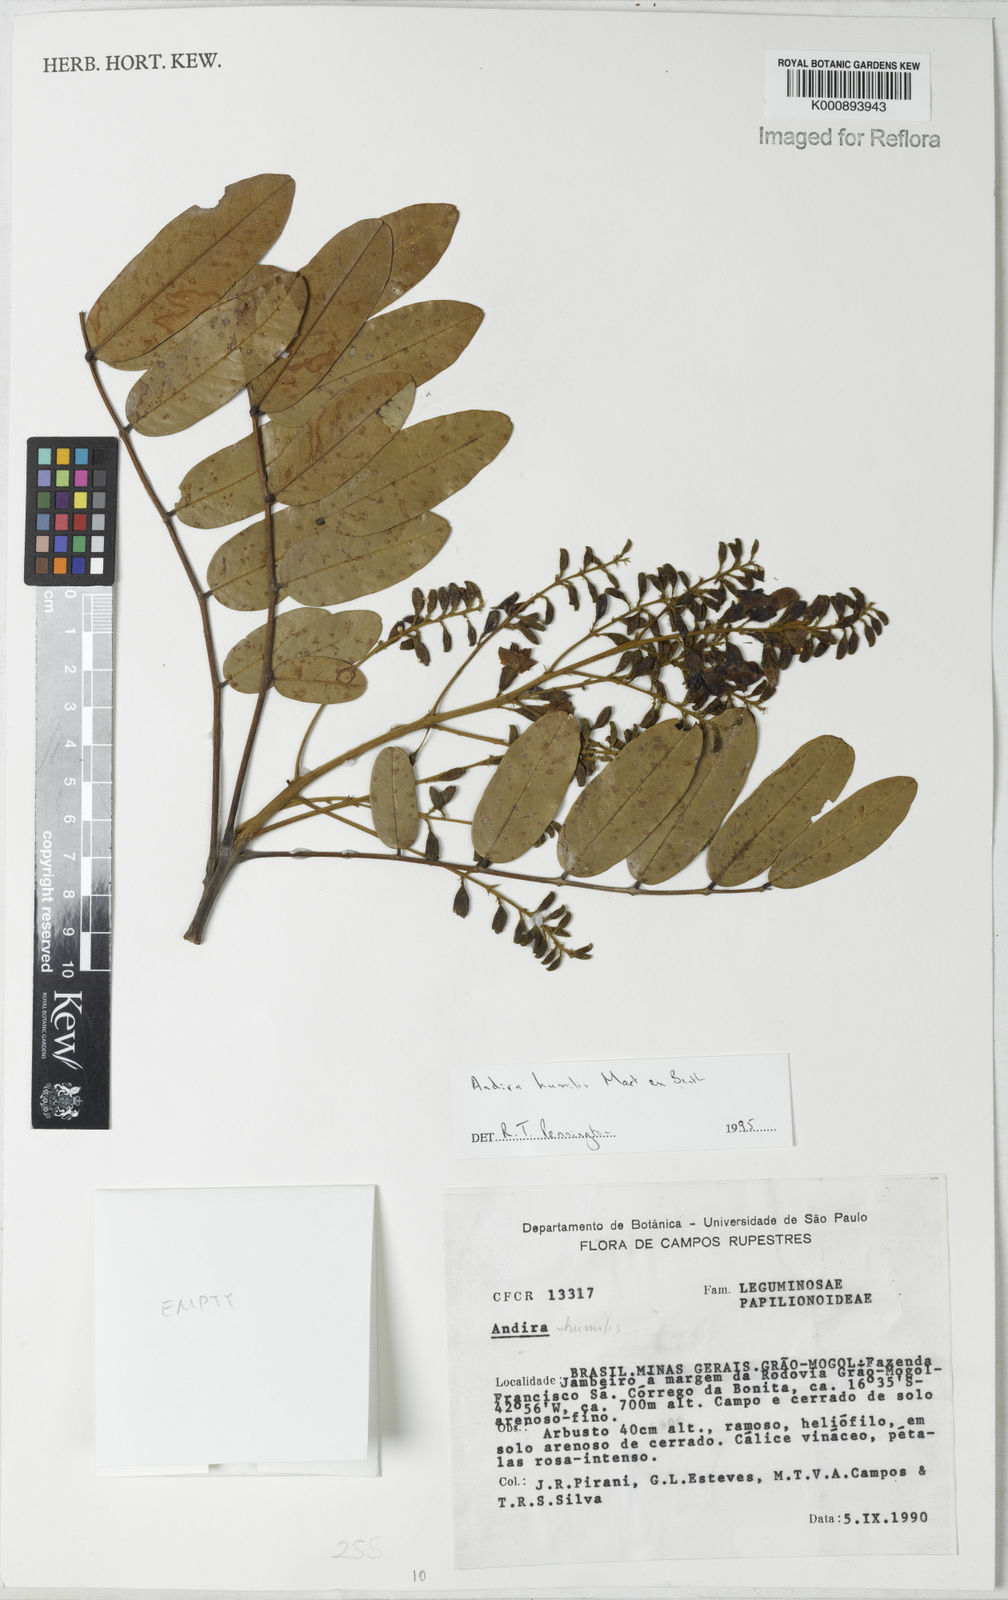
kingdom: Plantae
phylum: Tracheophyta
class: Magnoliopsida
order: Fabales
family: Fabaceae
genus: Andira
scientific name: Andira humilis
